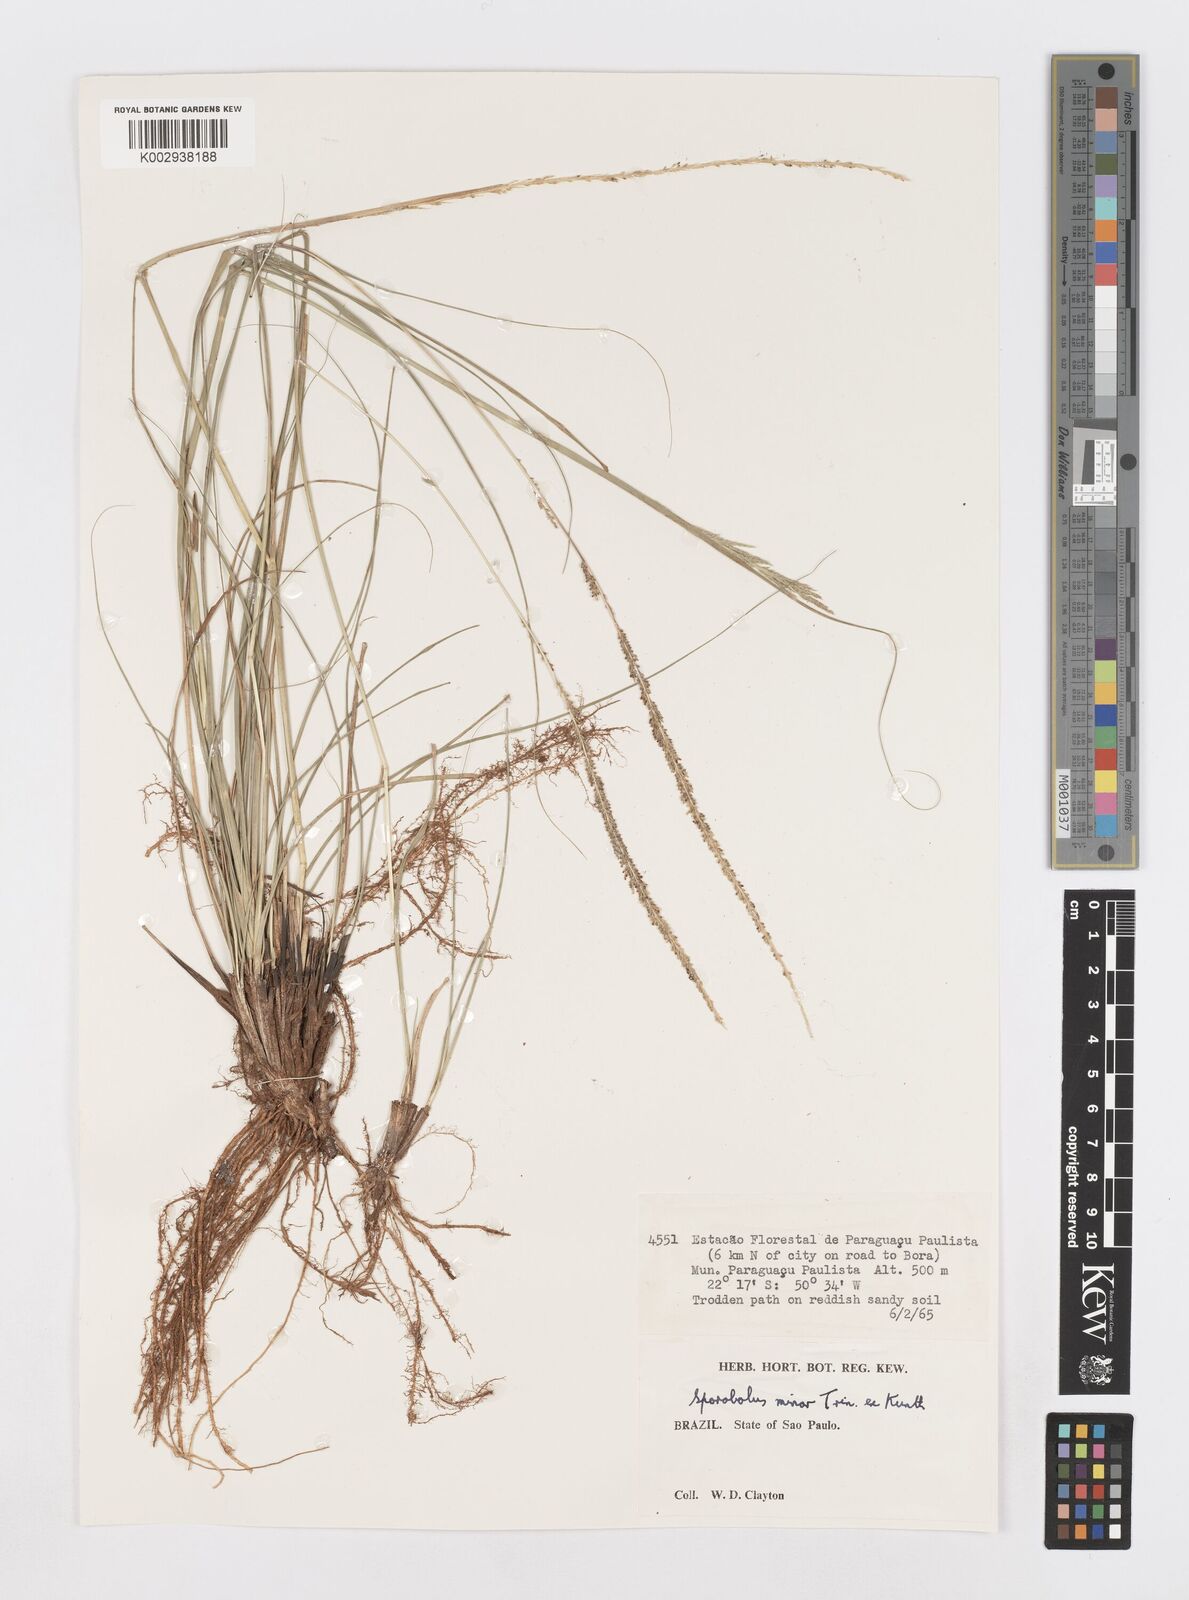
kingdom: Plantae
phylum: Tracheophyta
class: Liliopsida
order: Poales
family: Poaceae
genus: Sporobolus
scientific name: Sporobolus indicus
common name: Smut grass
